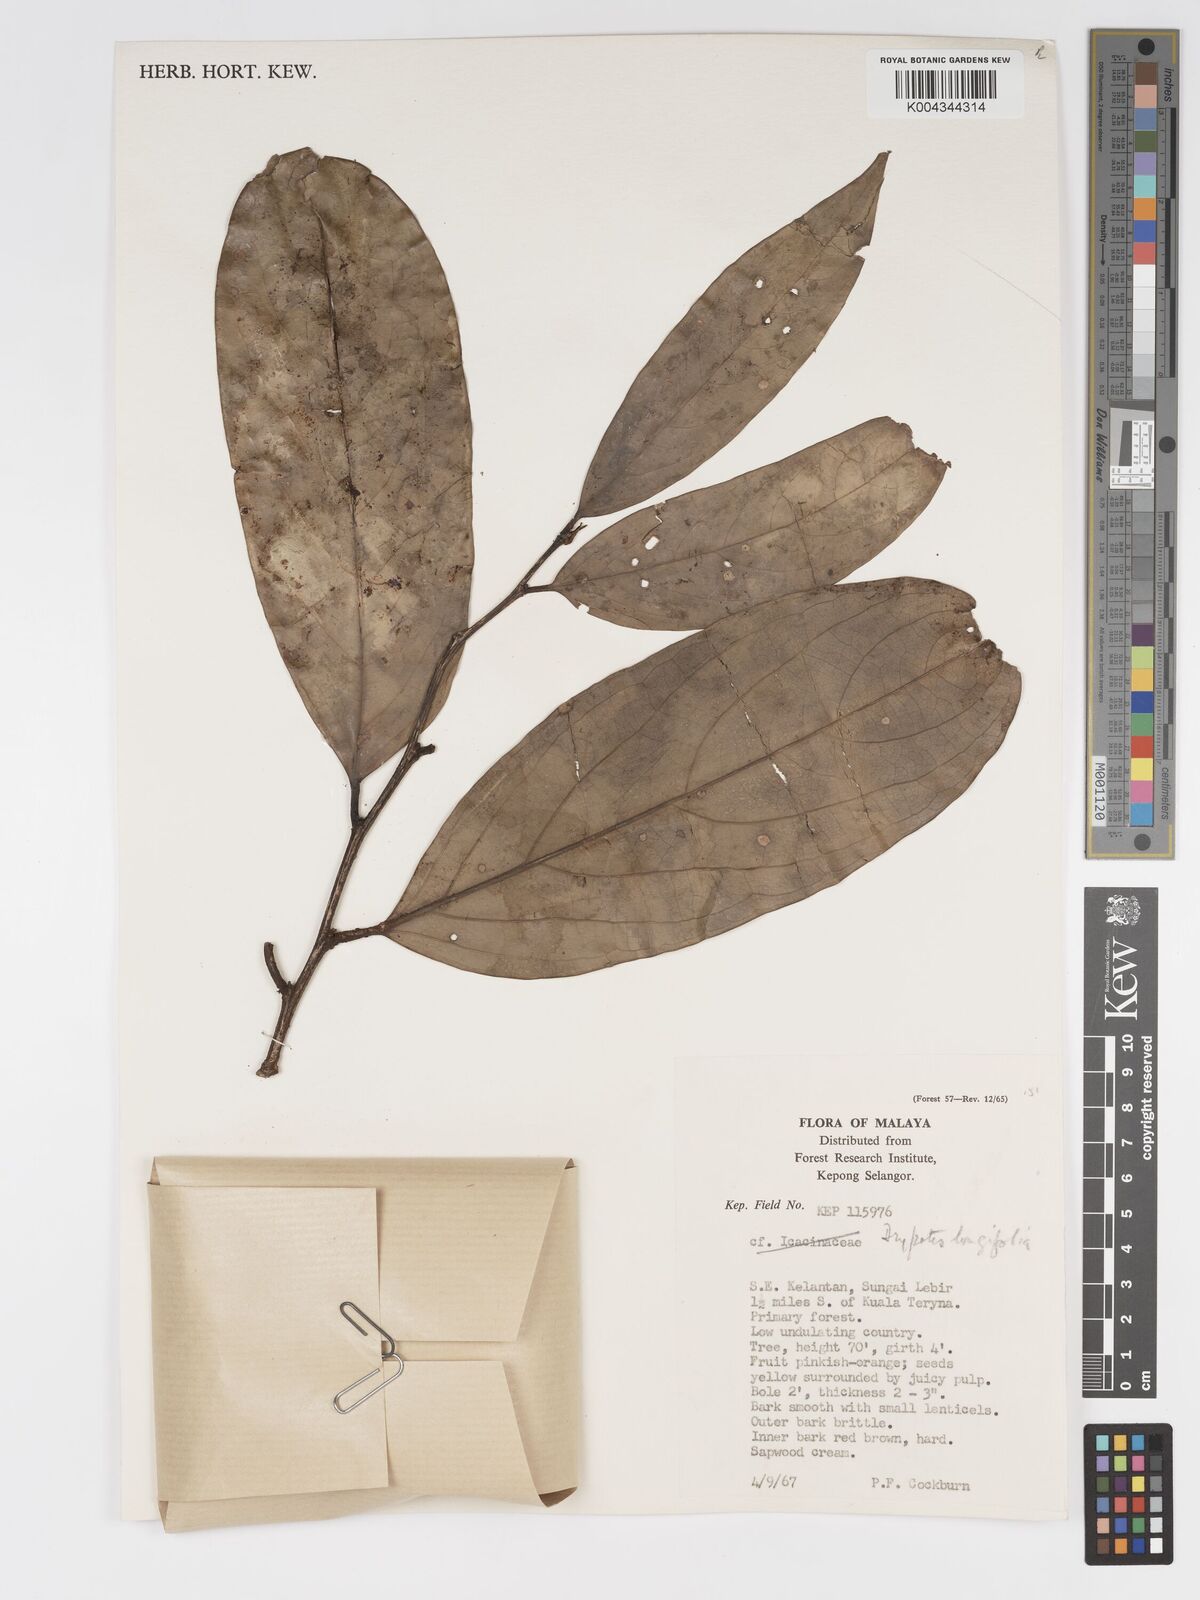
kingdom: Plantae
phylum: Tracheophyta
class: Magnoliopsida
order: Malpighiales
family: Putranjivaceae
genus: Drypetes
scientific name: Drypetes longifolia
